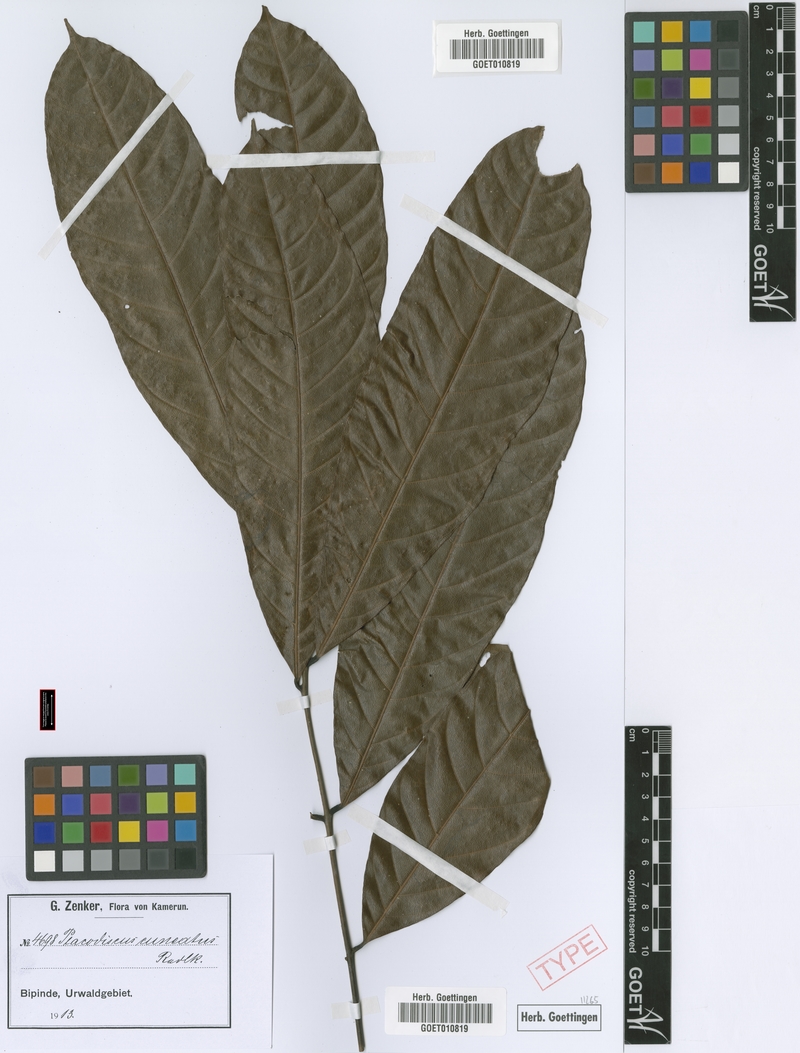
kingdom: Plantae
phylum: Tracheophyta
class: Magnoliopsida
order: Sapindales
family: Sapindaceae
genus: Placodiscus
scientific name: Placodiscus angustifolius
